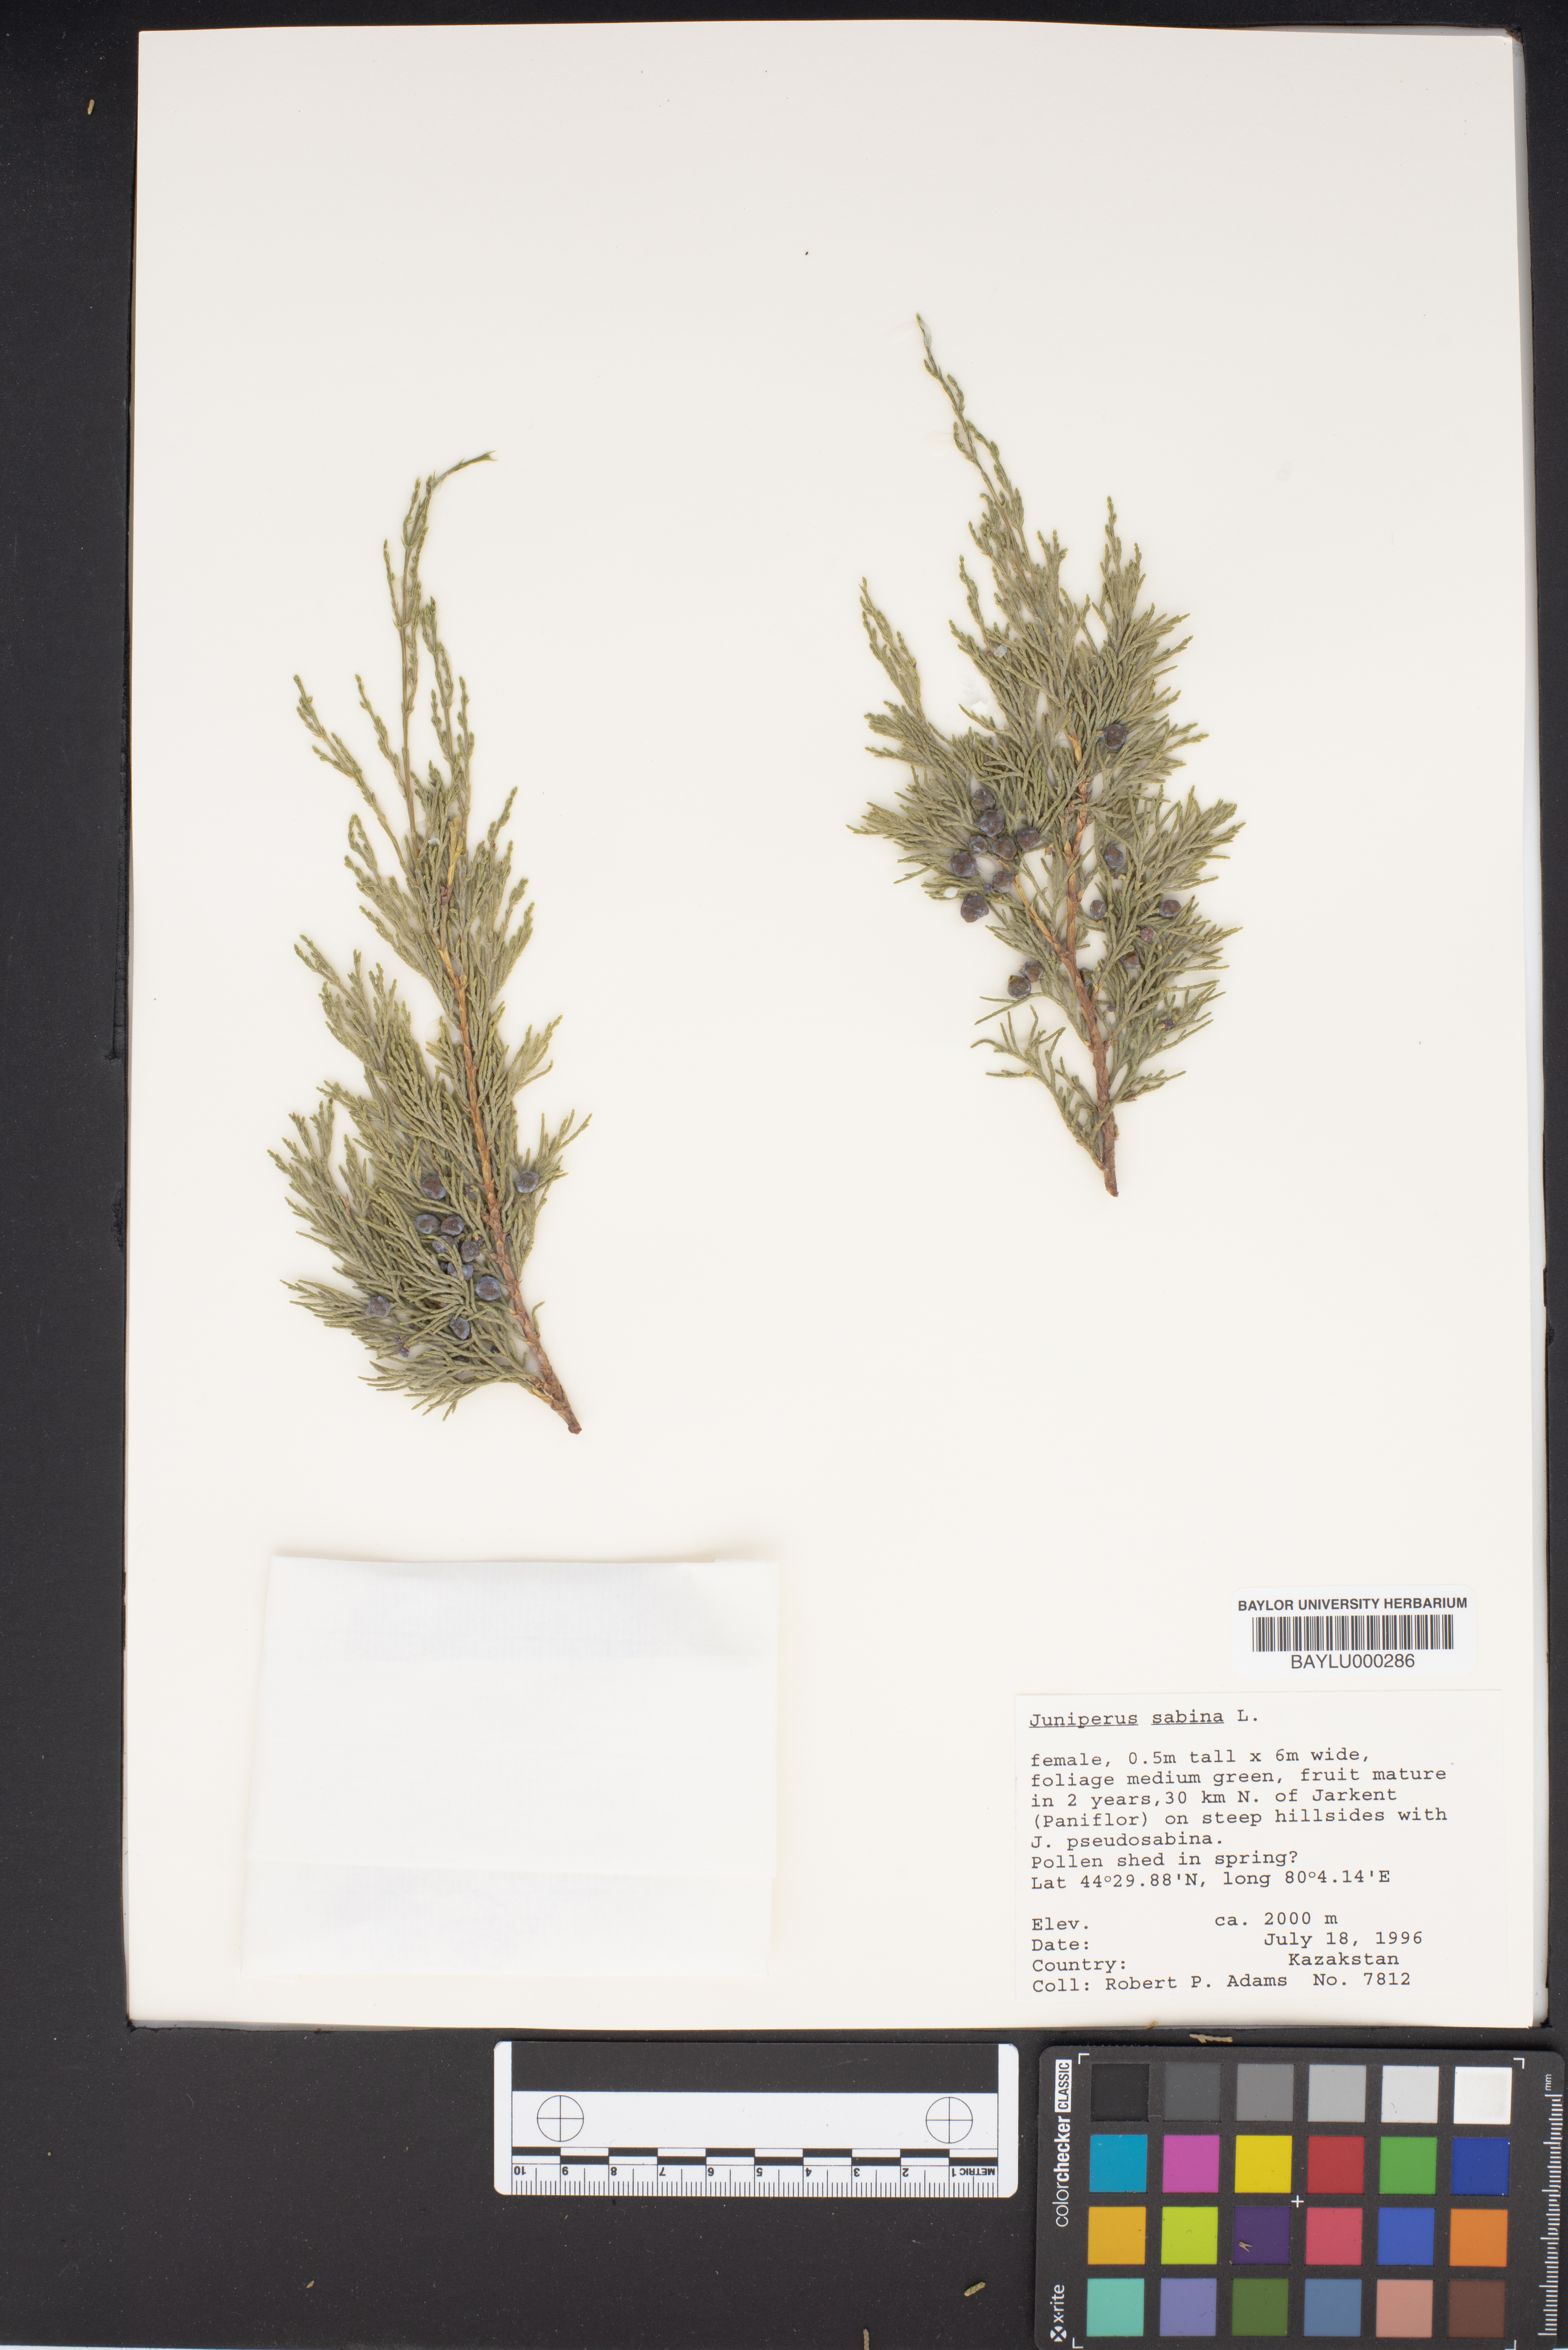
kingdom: Plantae
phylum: Tracheophyta
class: Pinopsida
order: Pinales
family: Cupressaceae
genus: Juniperus
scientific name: Juniperus sabina
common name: Savin
